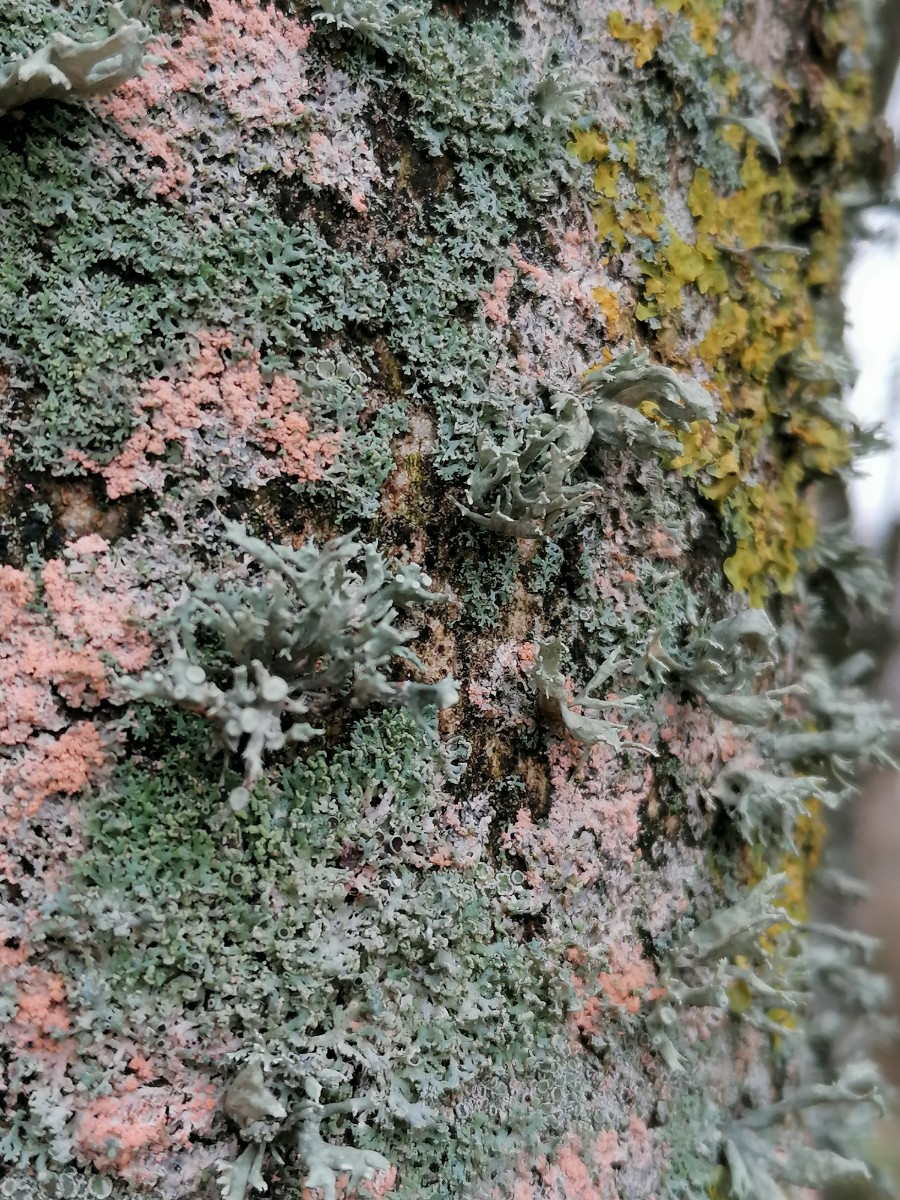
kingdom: Fungi
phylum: Basidiomycota
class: Agaricomycetes
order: Corticiales
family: Corticiaceae
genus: Erythricium
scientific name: Erythricium aurantiacum
